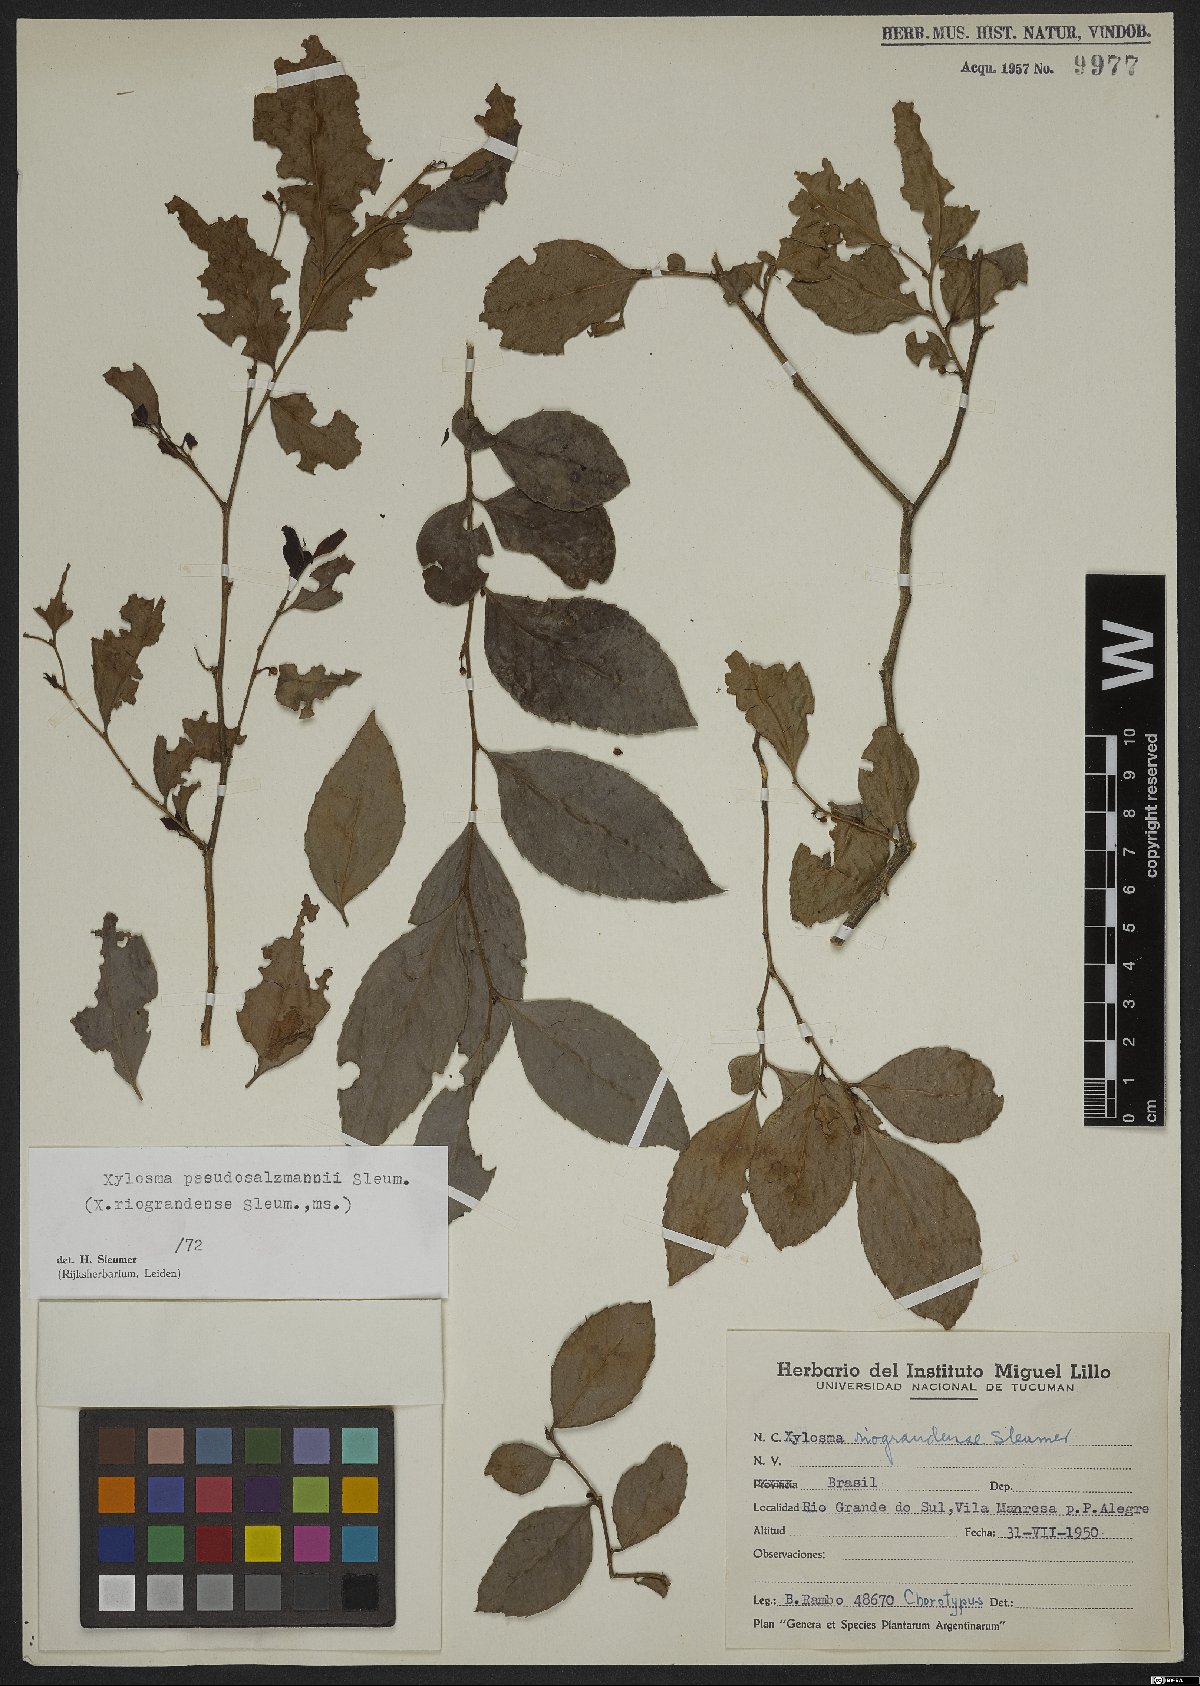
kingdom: Plantae
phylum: Tracheophyta
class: Magnoliopsida
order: Malpighiales
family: Salicaceae
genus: Xylosma
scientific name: Xylosma pseudosalzmannii
